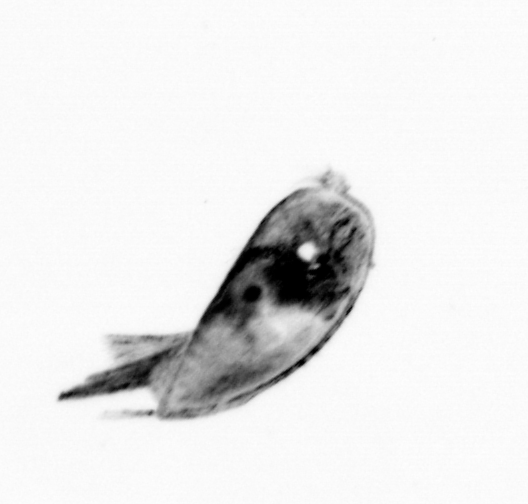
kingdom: Animalia
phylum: Arthropoda
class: Maxillopoda
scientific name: Maxillopoda
